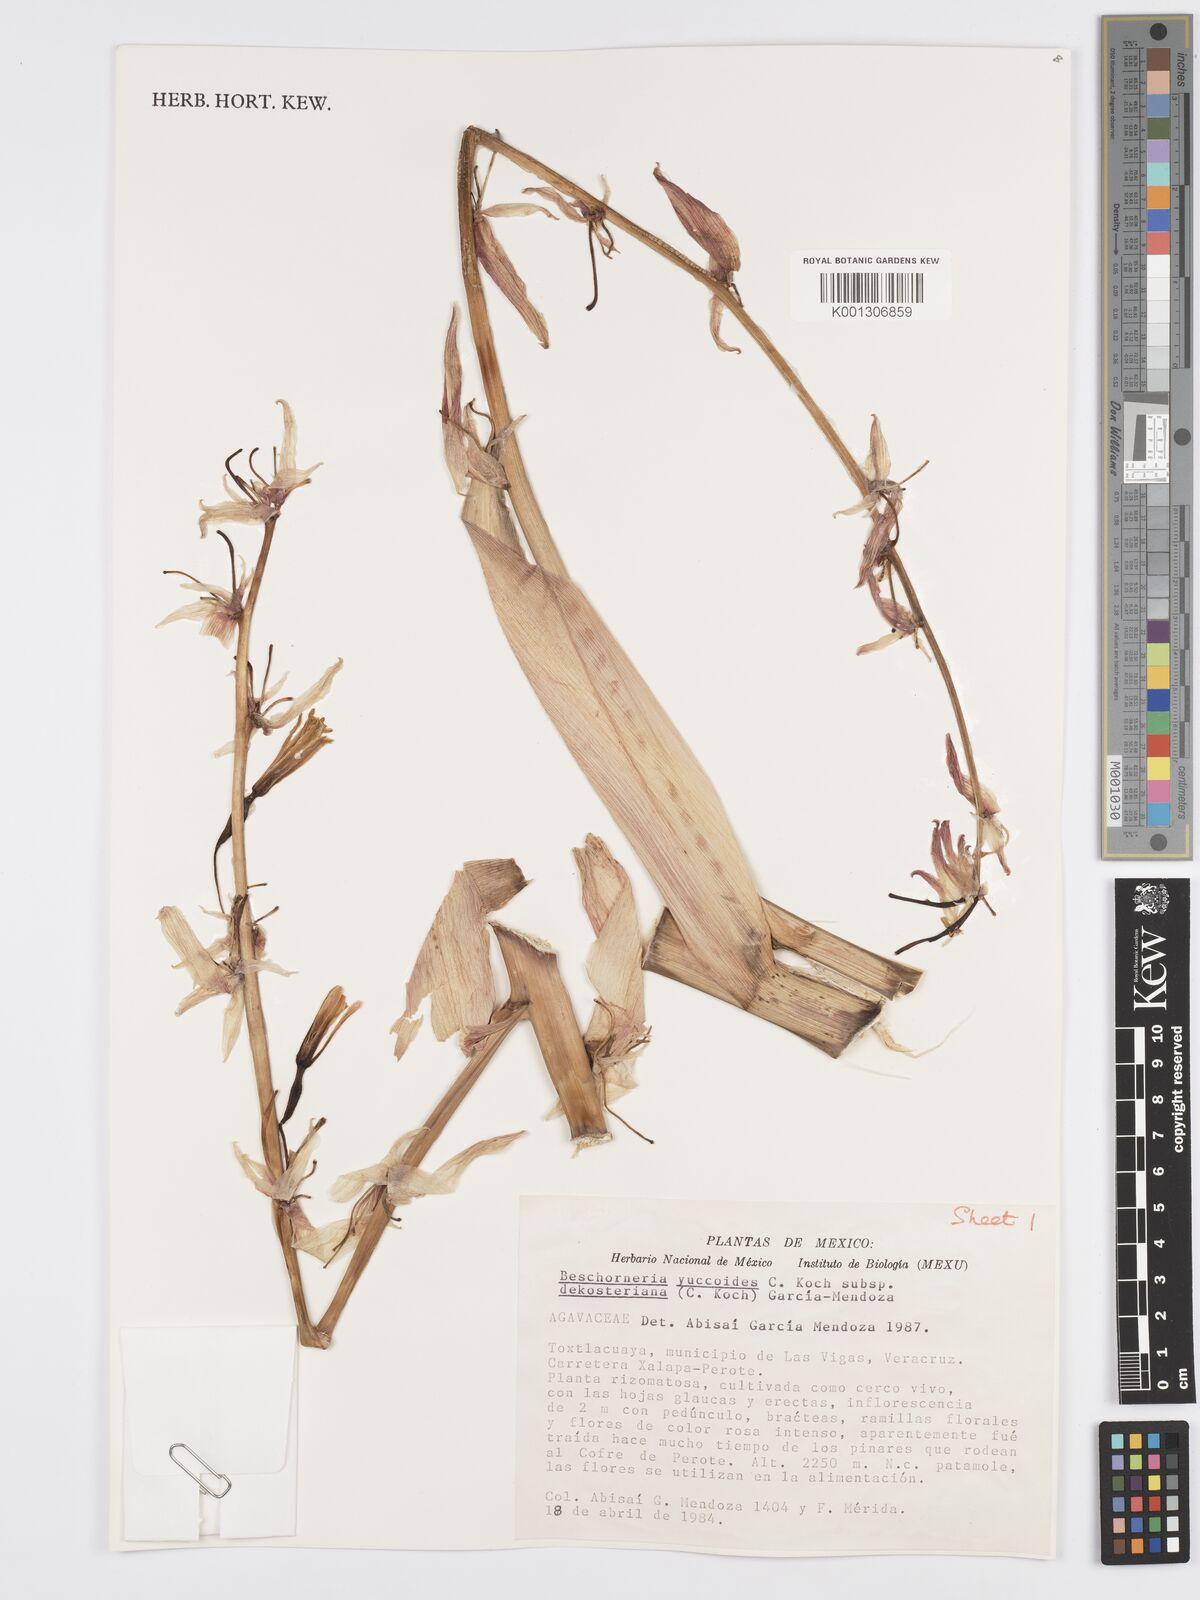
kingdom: Plantae
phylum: Tracheophyta
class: Liliopsida
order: Asparagales
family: Asparagaceae
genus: Beschorneria
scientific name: Beschorneria yuccoides
